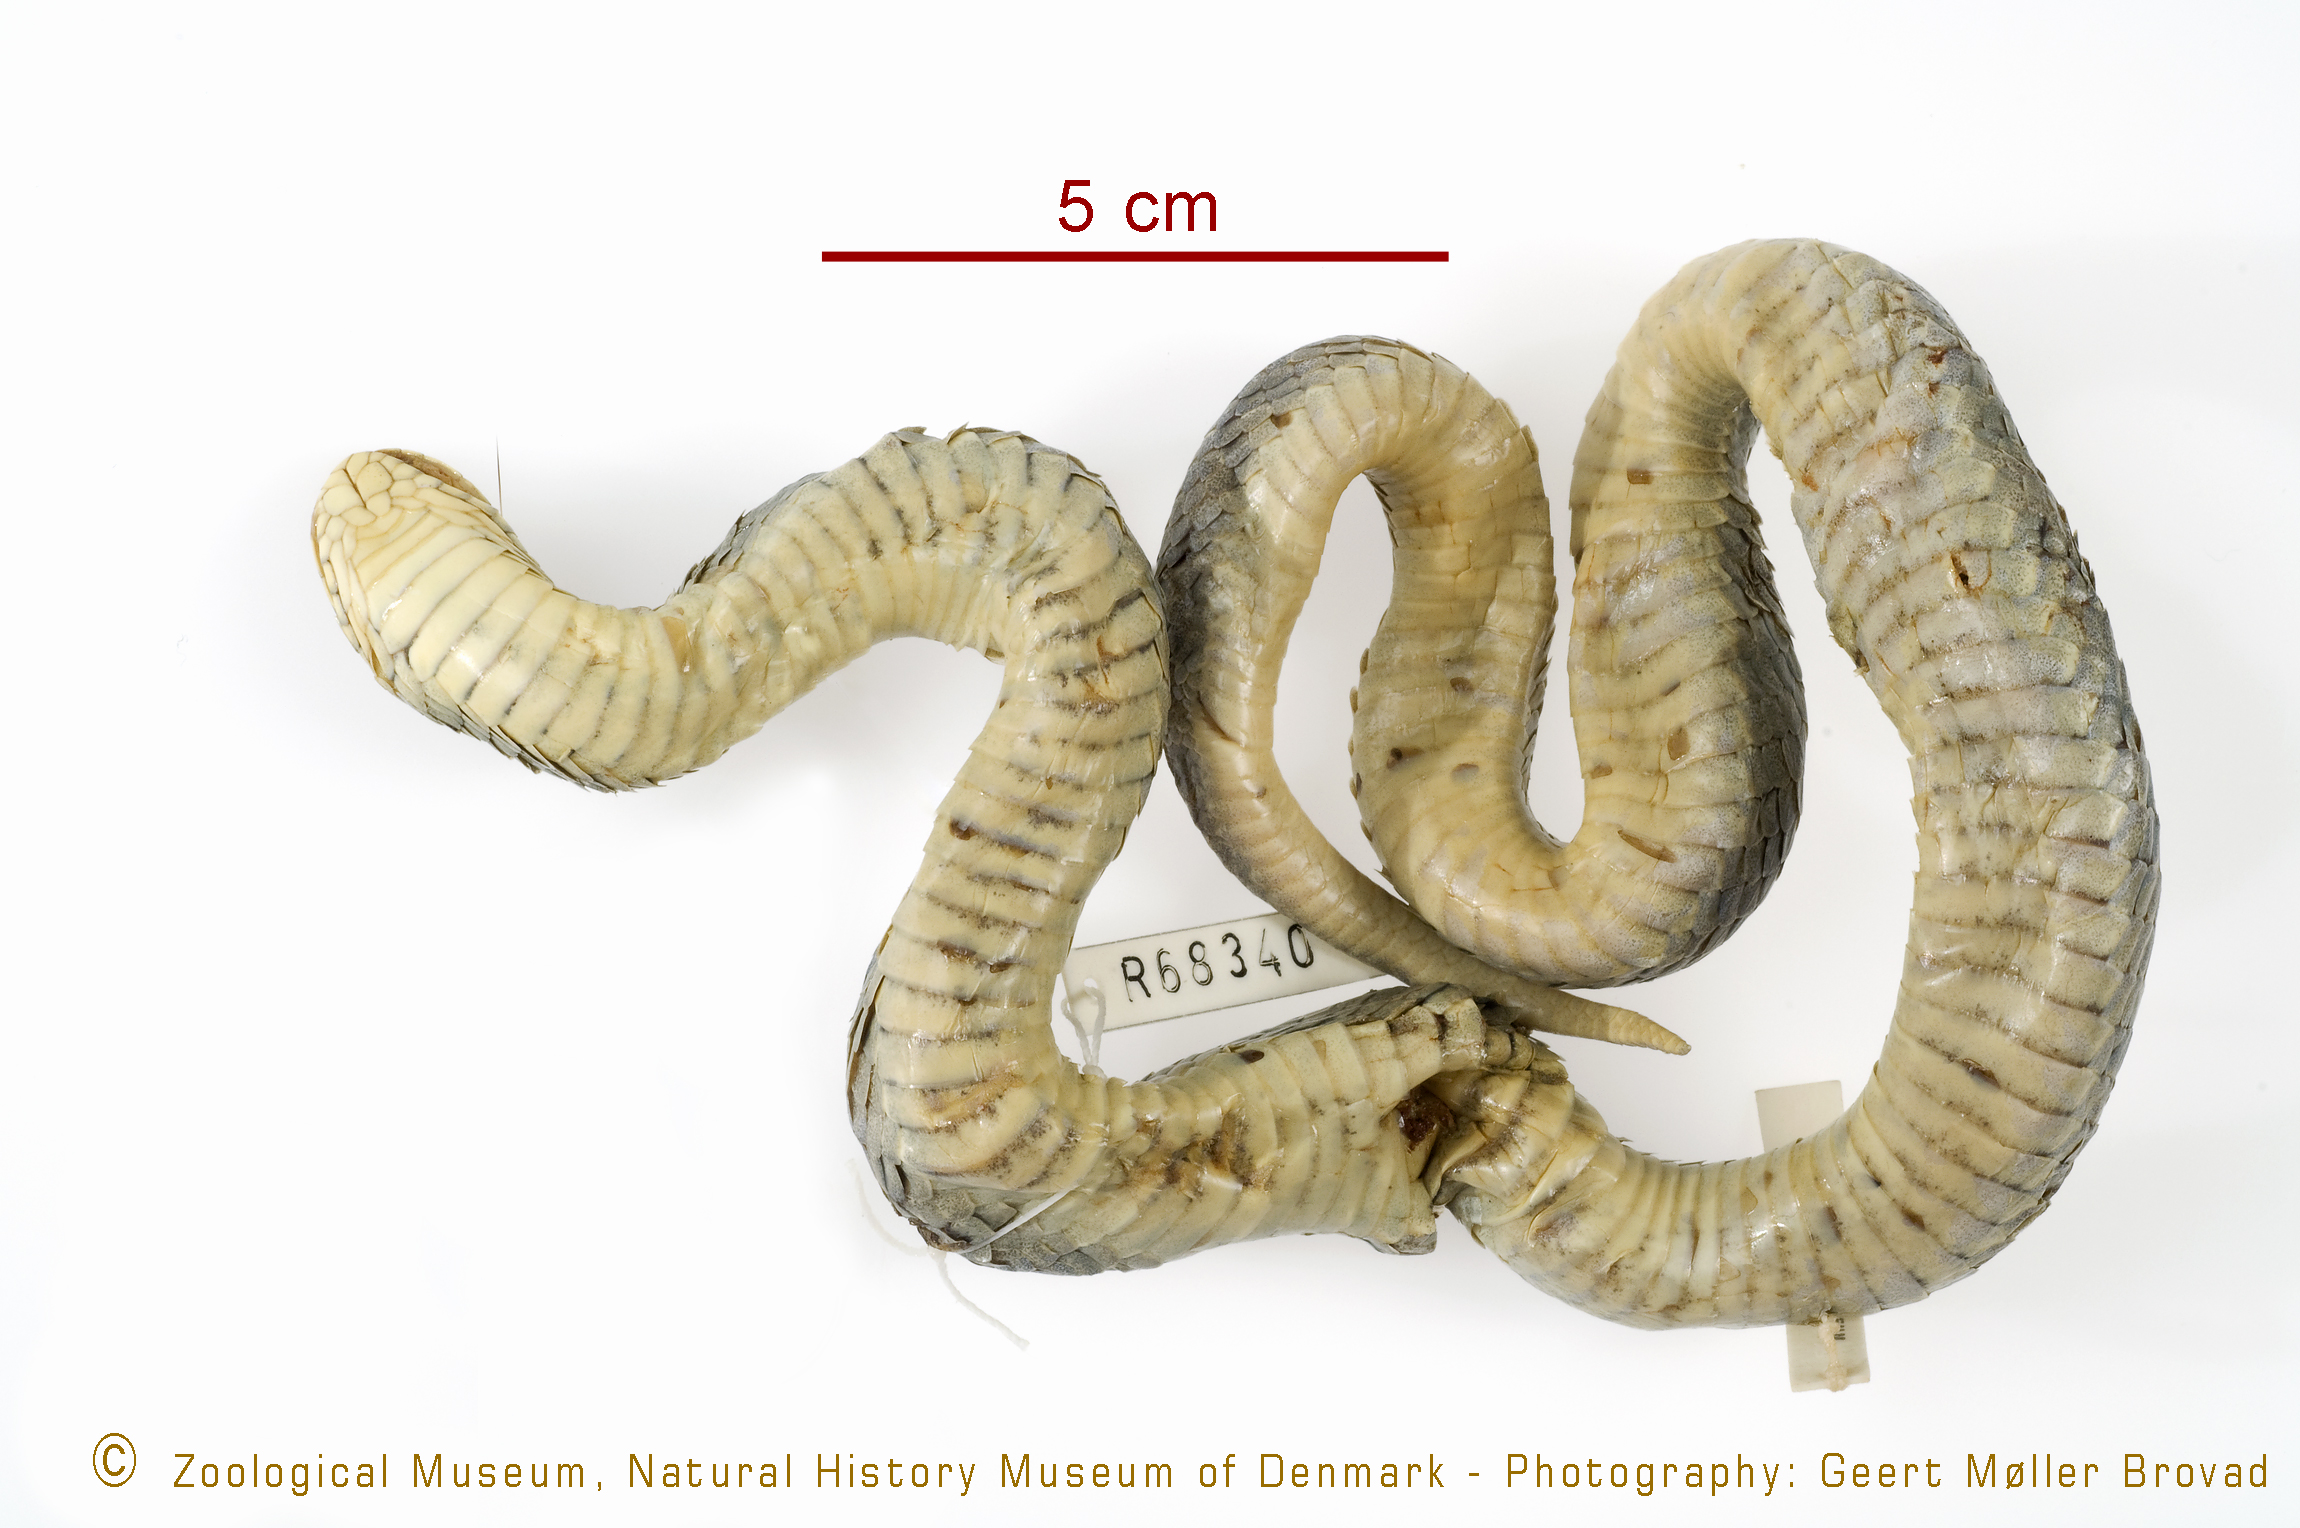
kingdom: Animalia
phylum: Chordata
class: Squamata
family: Viperidae
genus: Causus
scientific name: Causus rhombeatus
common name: Common night adder
